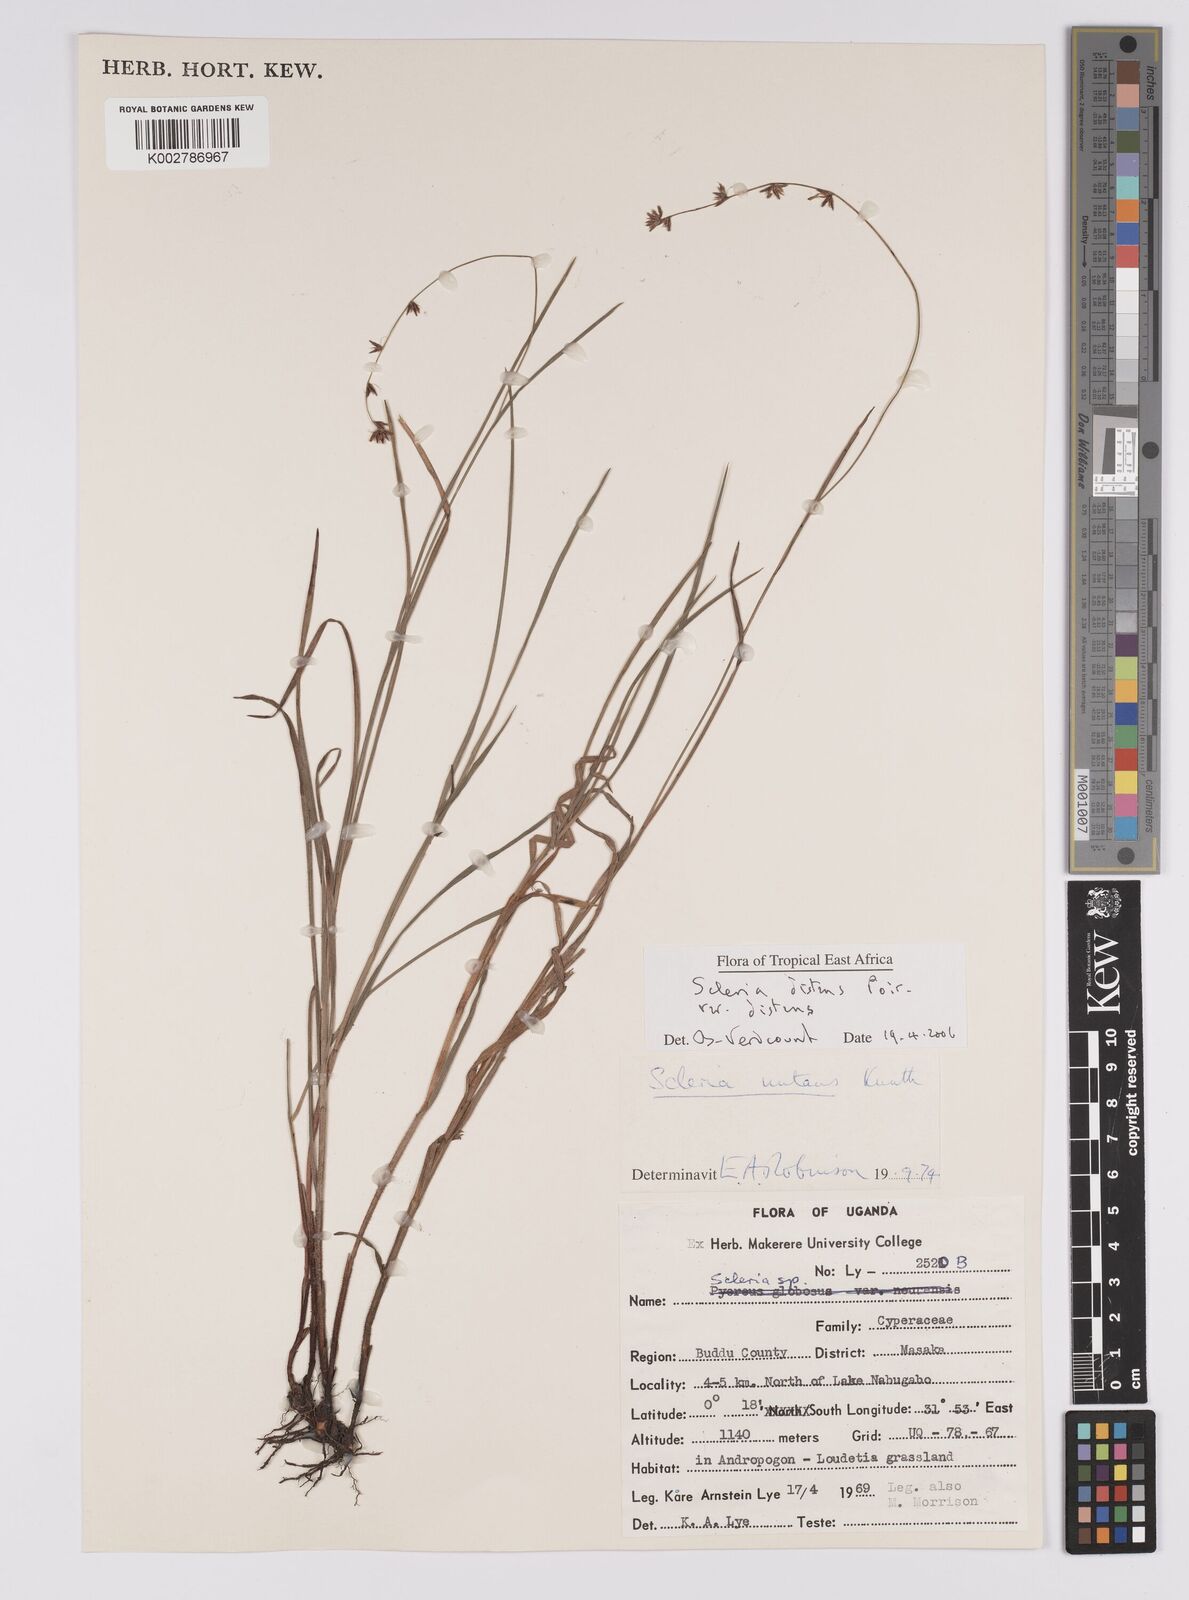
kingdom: Plantae
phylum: Tracheophyta
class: Liliopsida
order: Poales
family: Cyperaceae
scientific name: Cyperaceae
